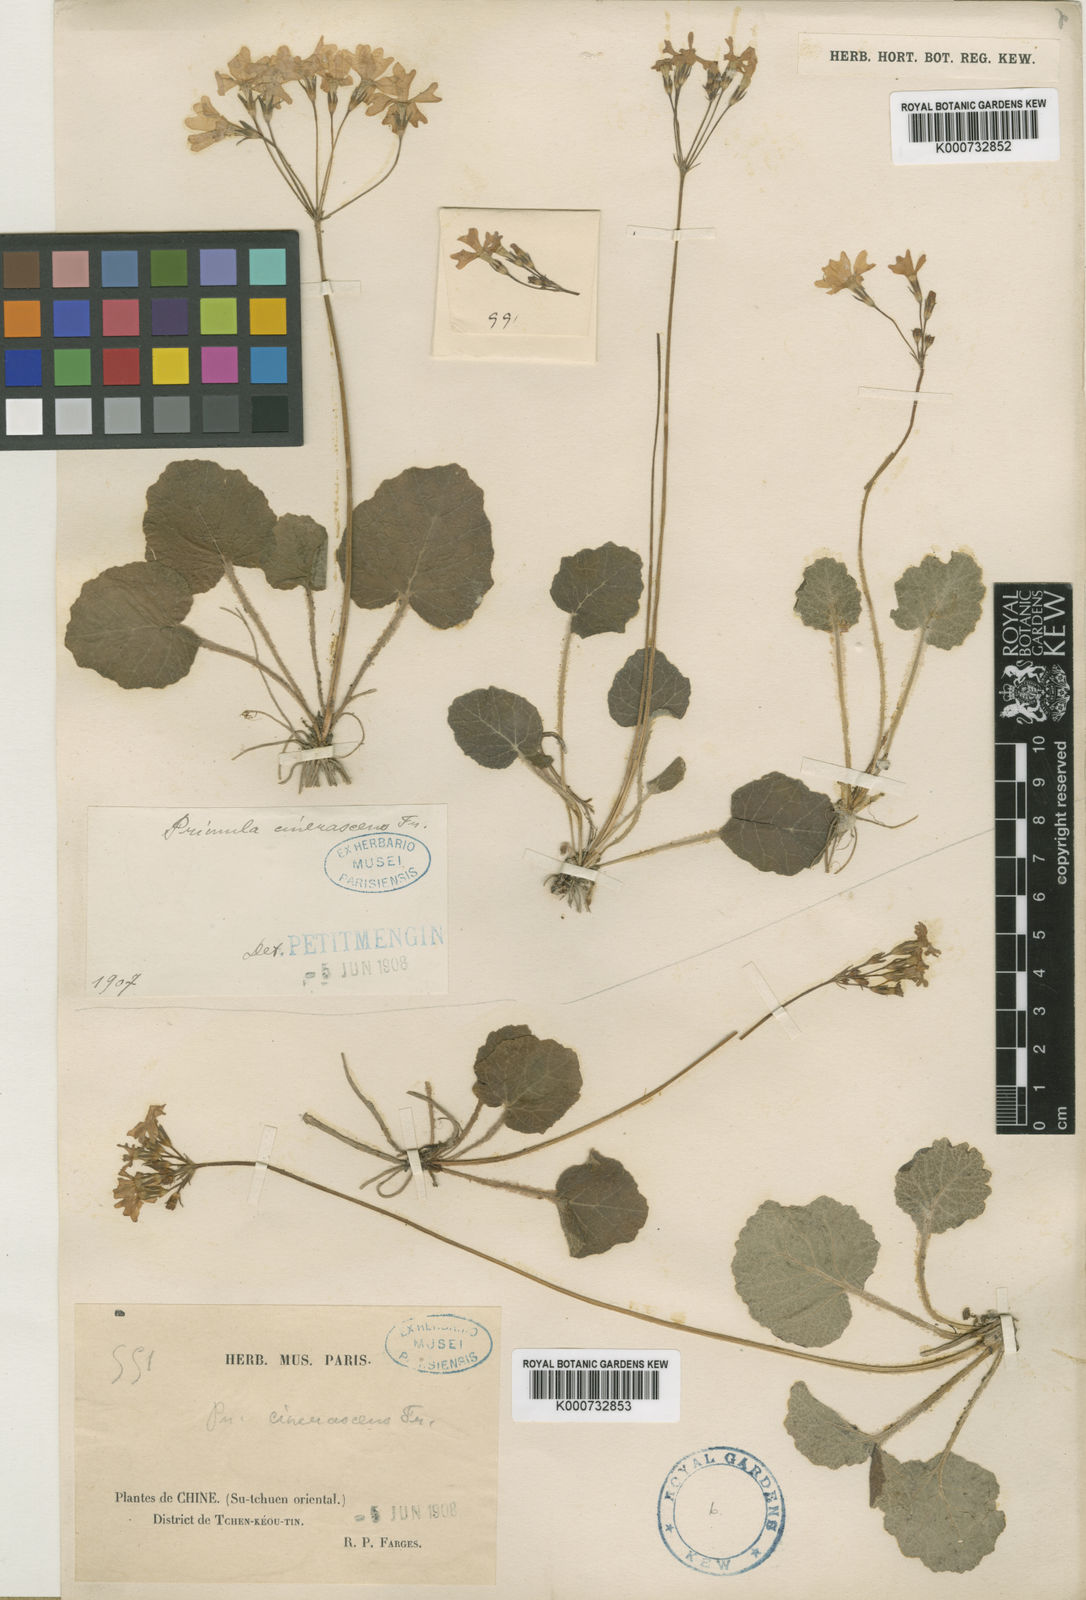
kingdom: Plantae
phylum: Tracheophyta
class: Magnoliopsida
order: Ericales
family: Primulaceae
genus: Primula
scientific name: Primula cinerascens
